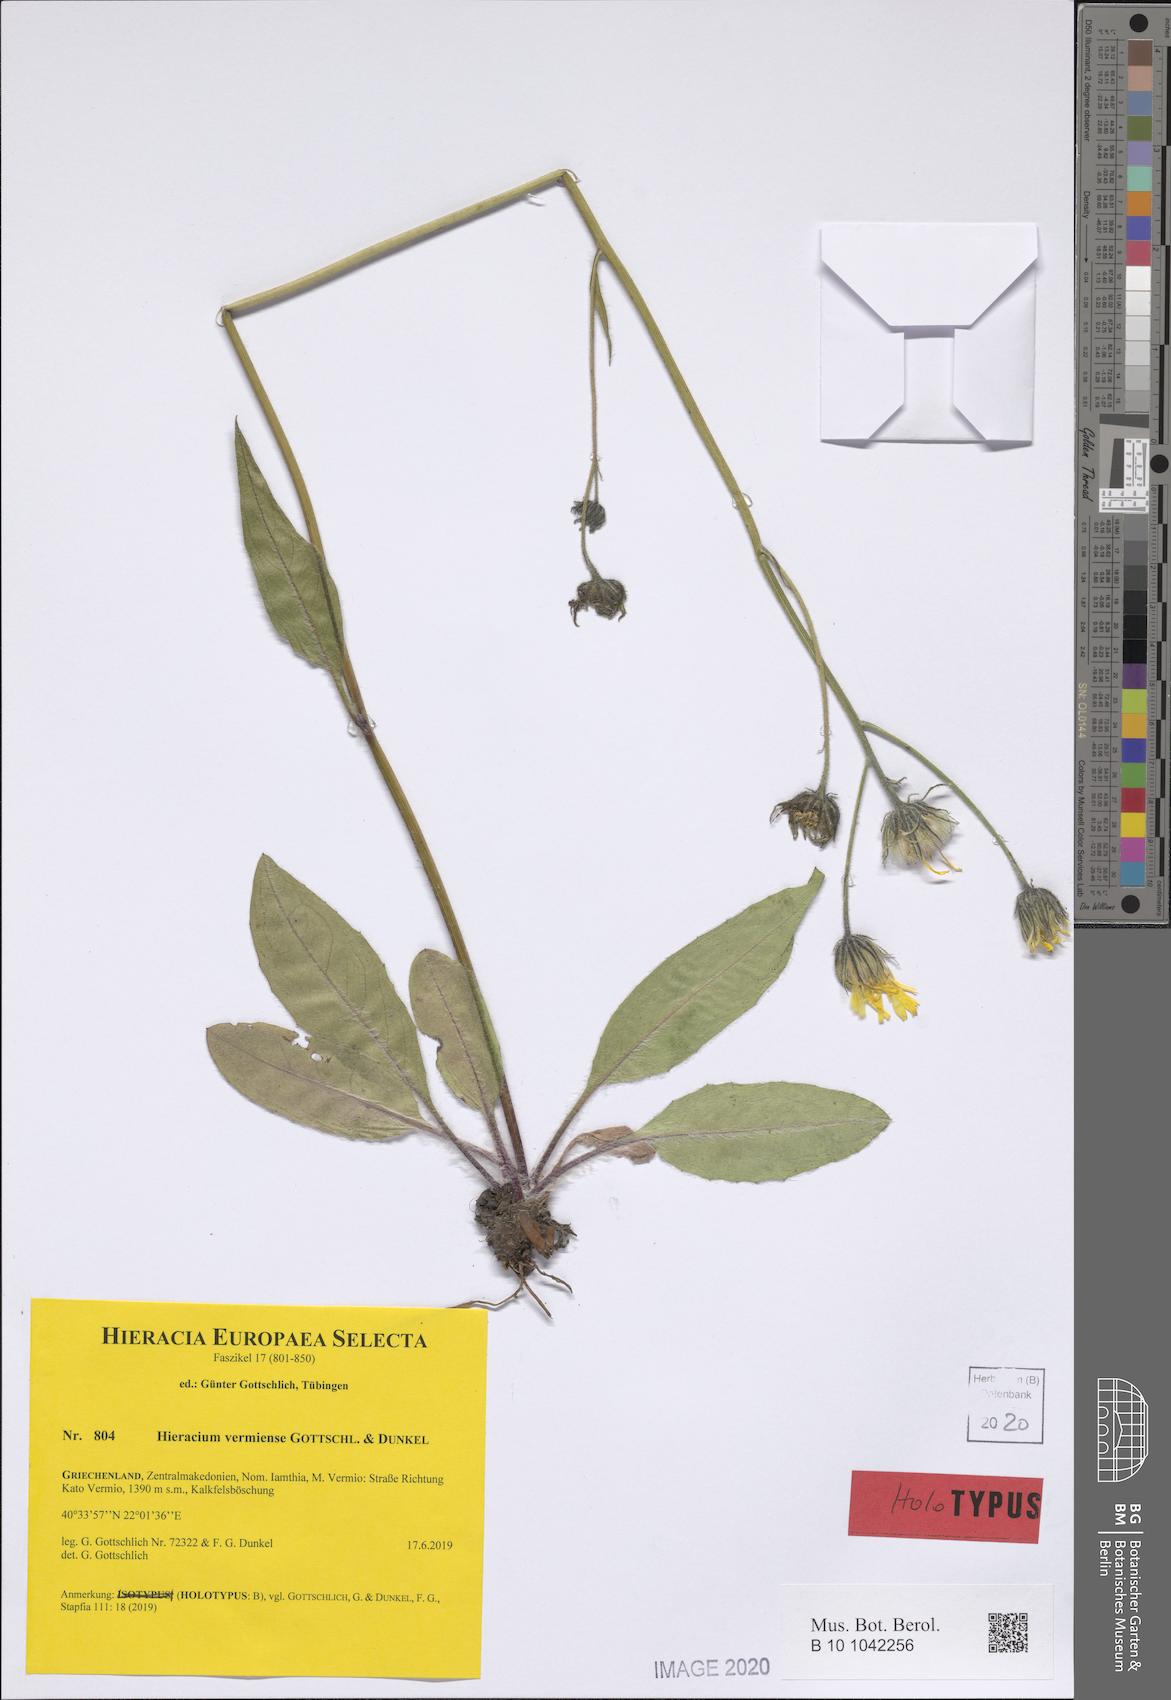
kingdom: Plantae
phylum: Tracheophyta
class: Magnoliopsida
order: Asterales
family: Asteraceae
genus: Hieracium
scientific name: Hieracium vermiense
